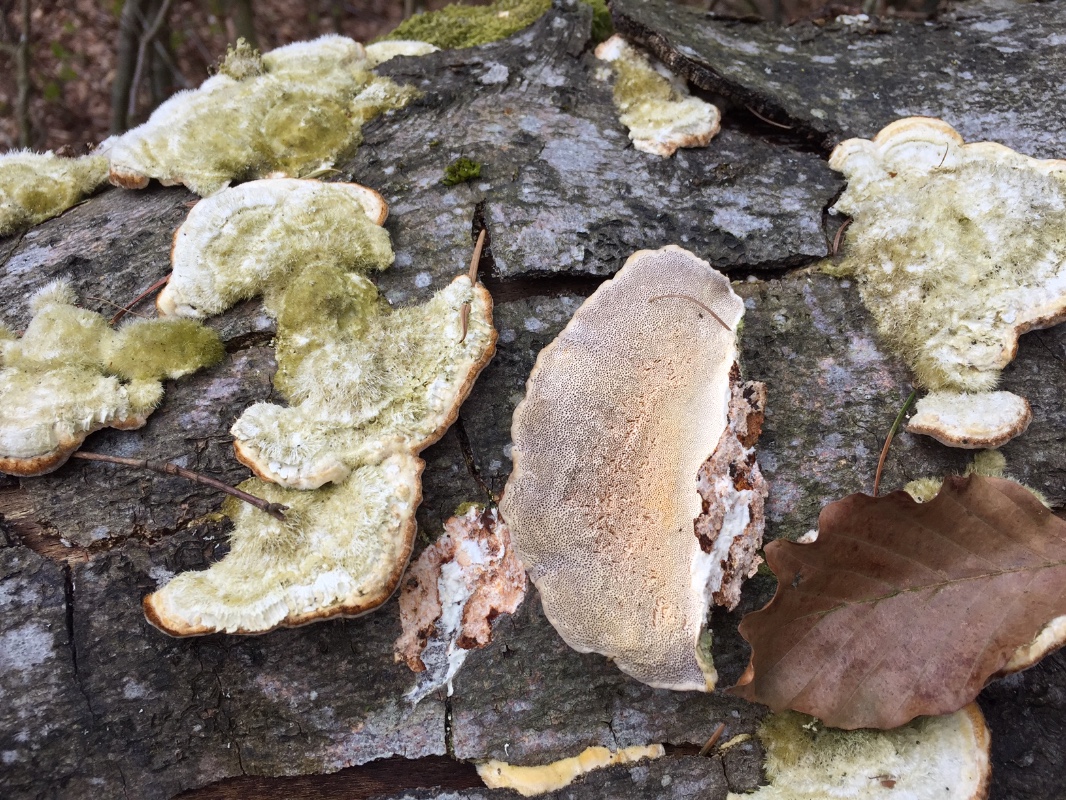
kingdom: Fungi
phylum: Basidiomycota
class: Agaricomycetes
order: Polyporales
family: Polyporaceae
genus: Trametes
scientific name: Trametes hirsuta
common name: håret læderporesvamp
